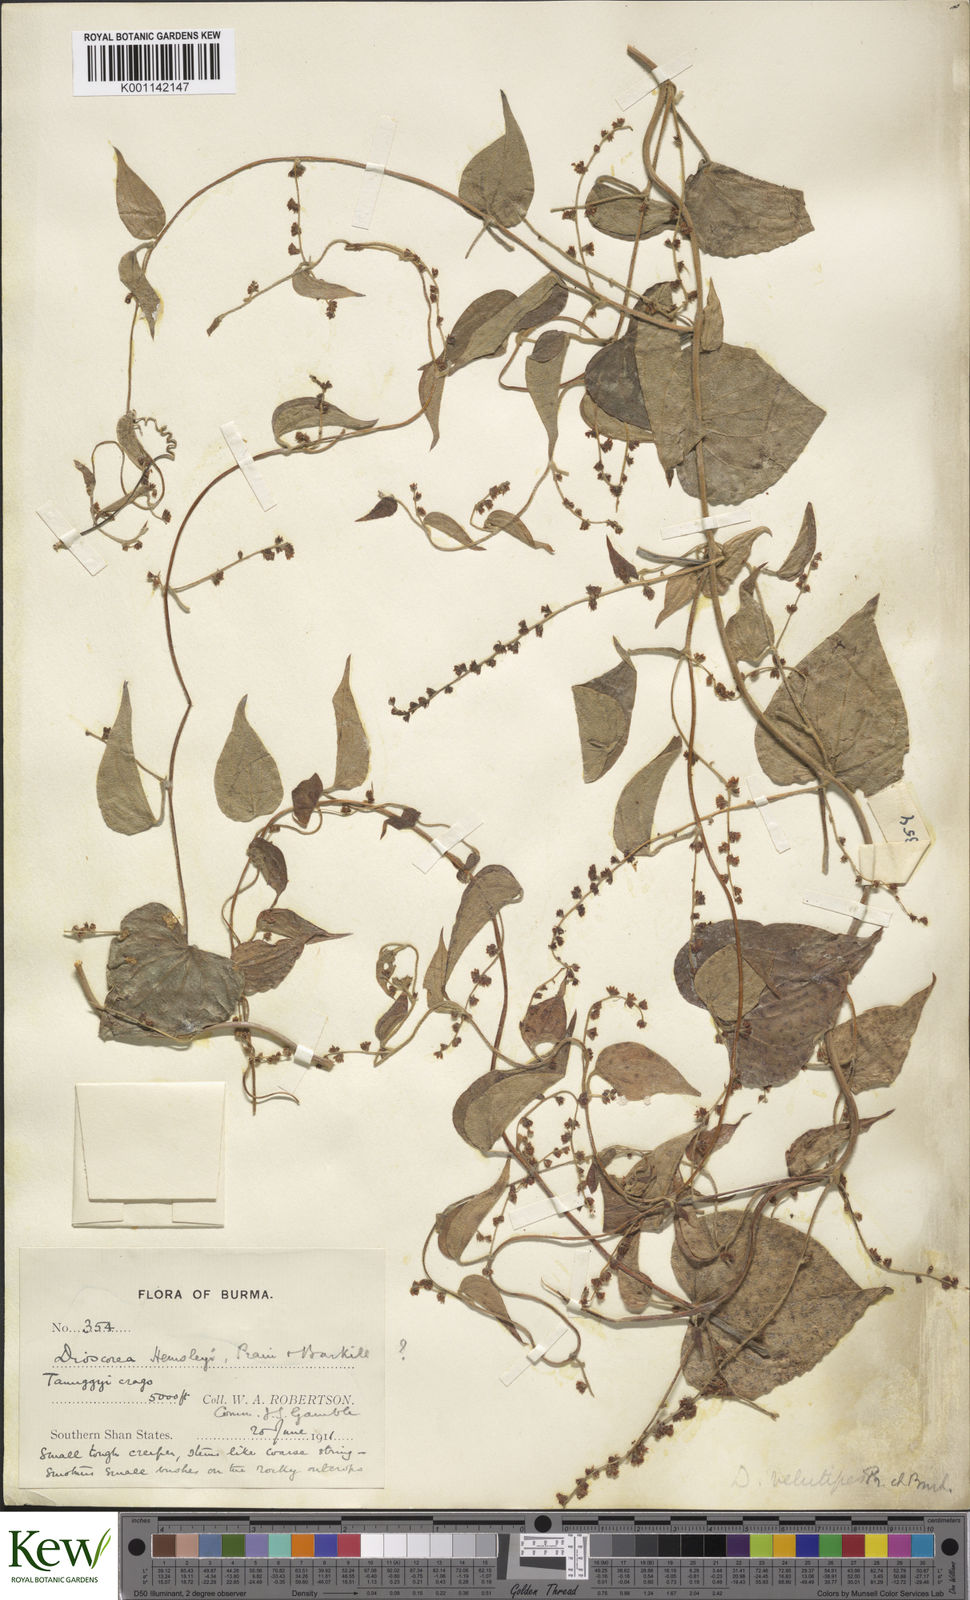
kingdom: Plantae
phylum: Tracheophyta
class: Liliopsida
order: Dioscoreales
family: Dioscoreaceae
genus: Dioscorea
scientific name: Dioscorea hemsleyi
